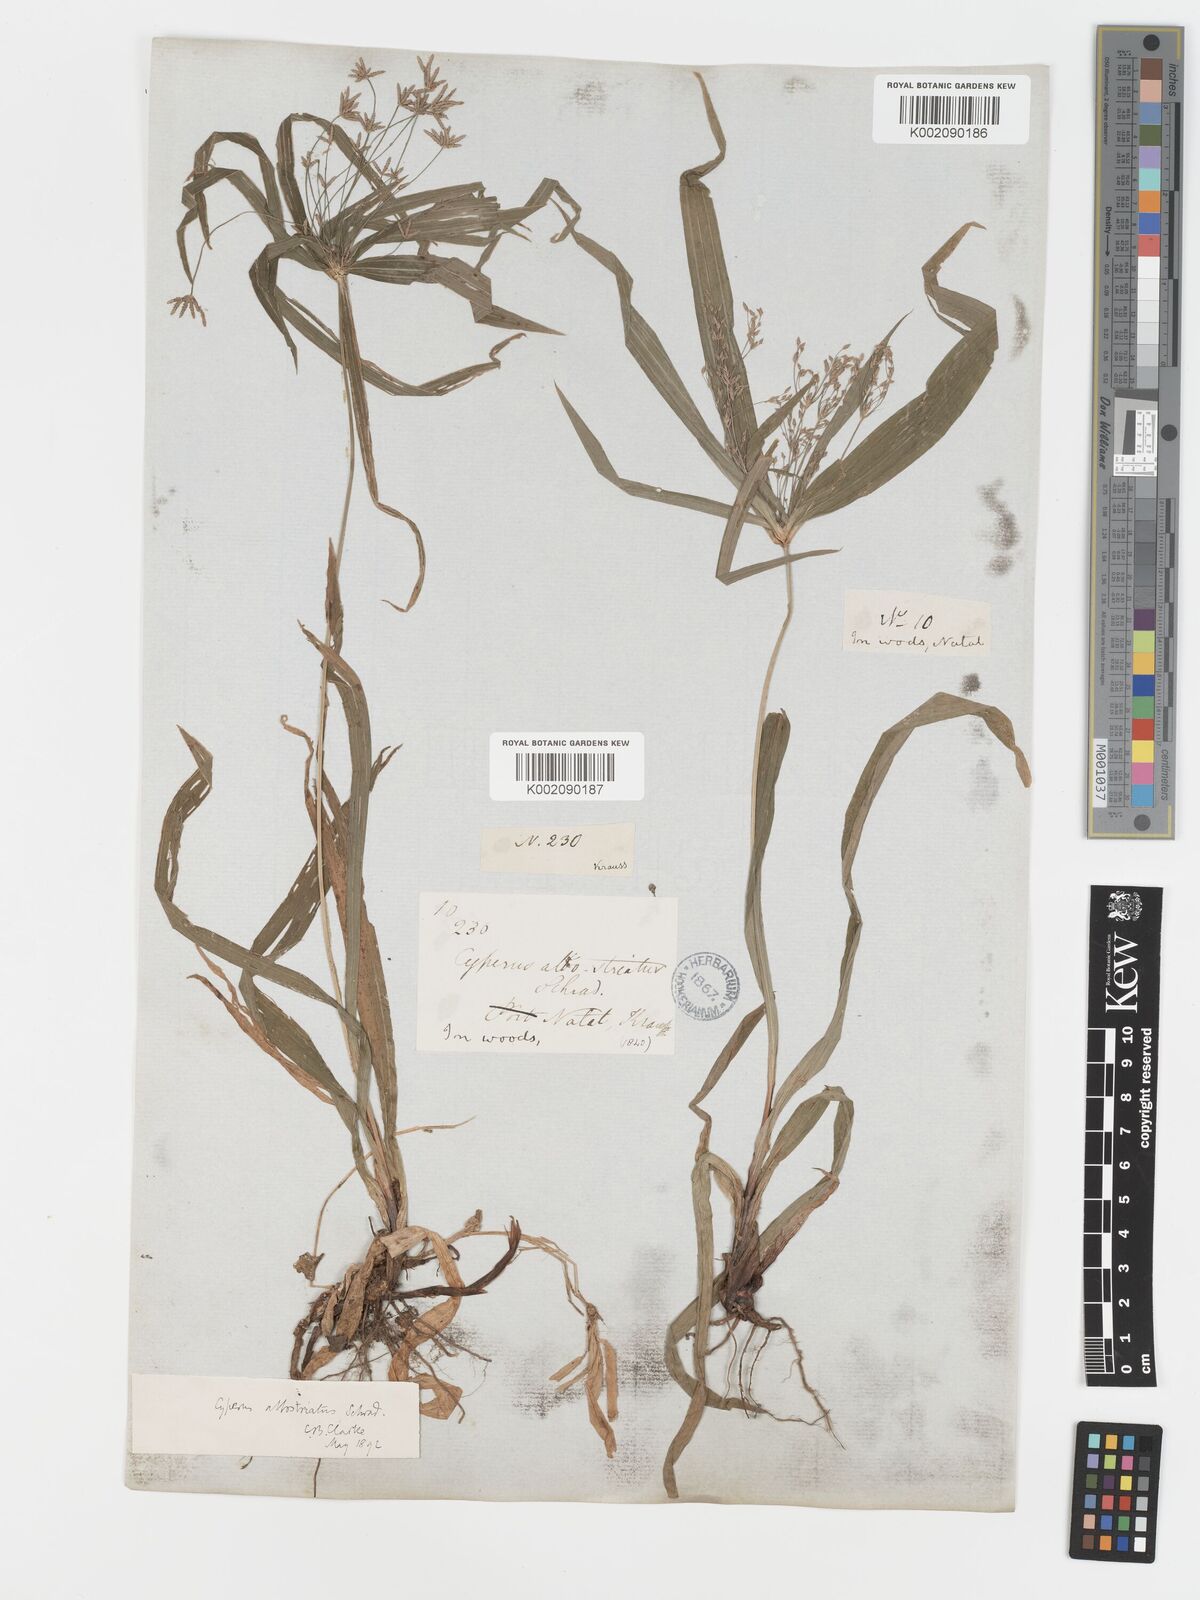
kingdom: Plantae
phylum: Tracheophyta
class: Liliopsida
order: Poales
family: Cyperaceae
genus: Cyperus
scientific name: Cyperus albostriatus
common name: Dwarf umbrella-grass
